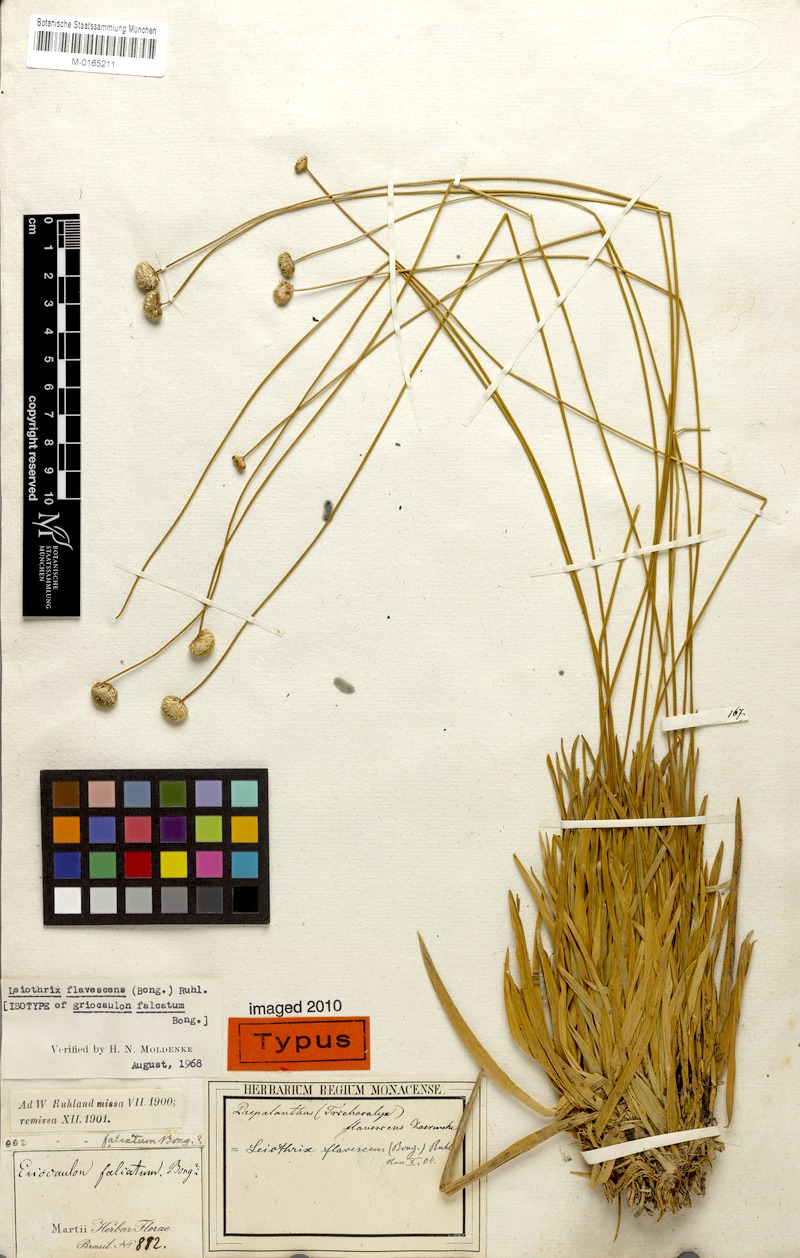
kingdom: Plantae
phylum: Tracheophyta
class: Liliopsida
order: Poales
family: Eriocaulaceae
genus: Leiothrix
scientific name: Leiothrix flavescens
